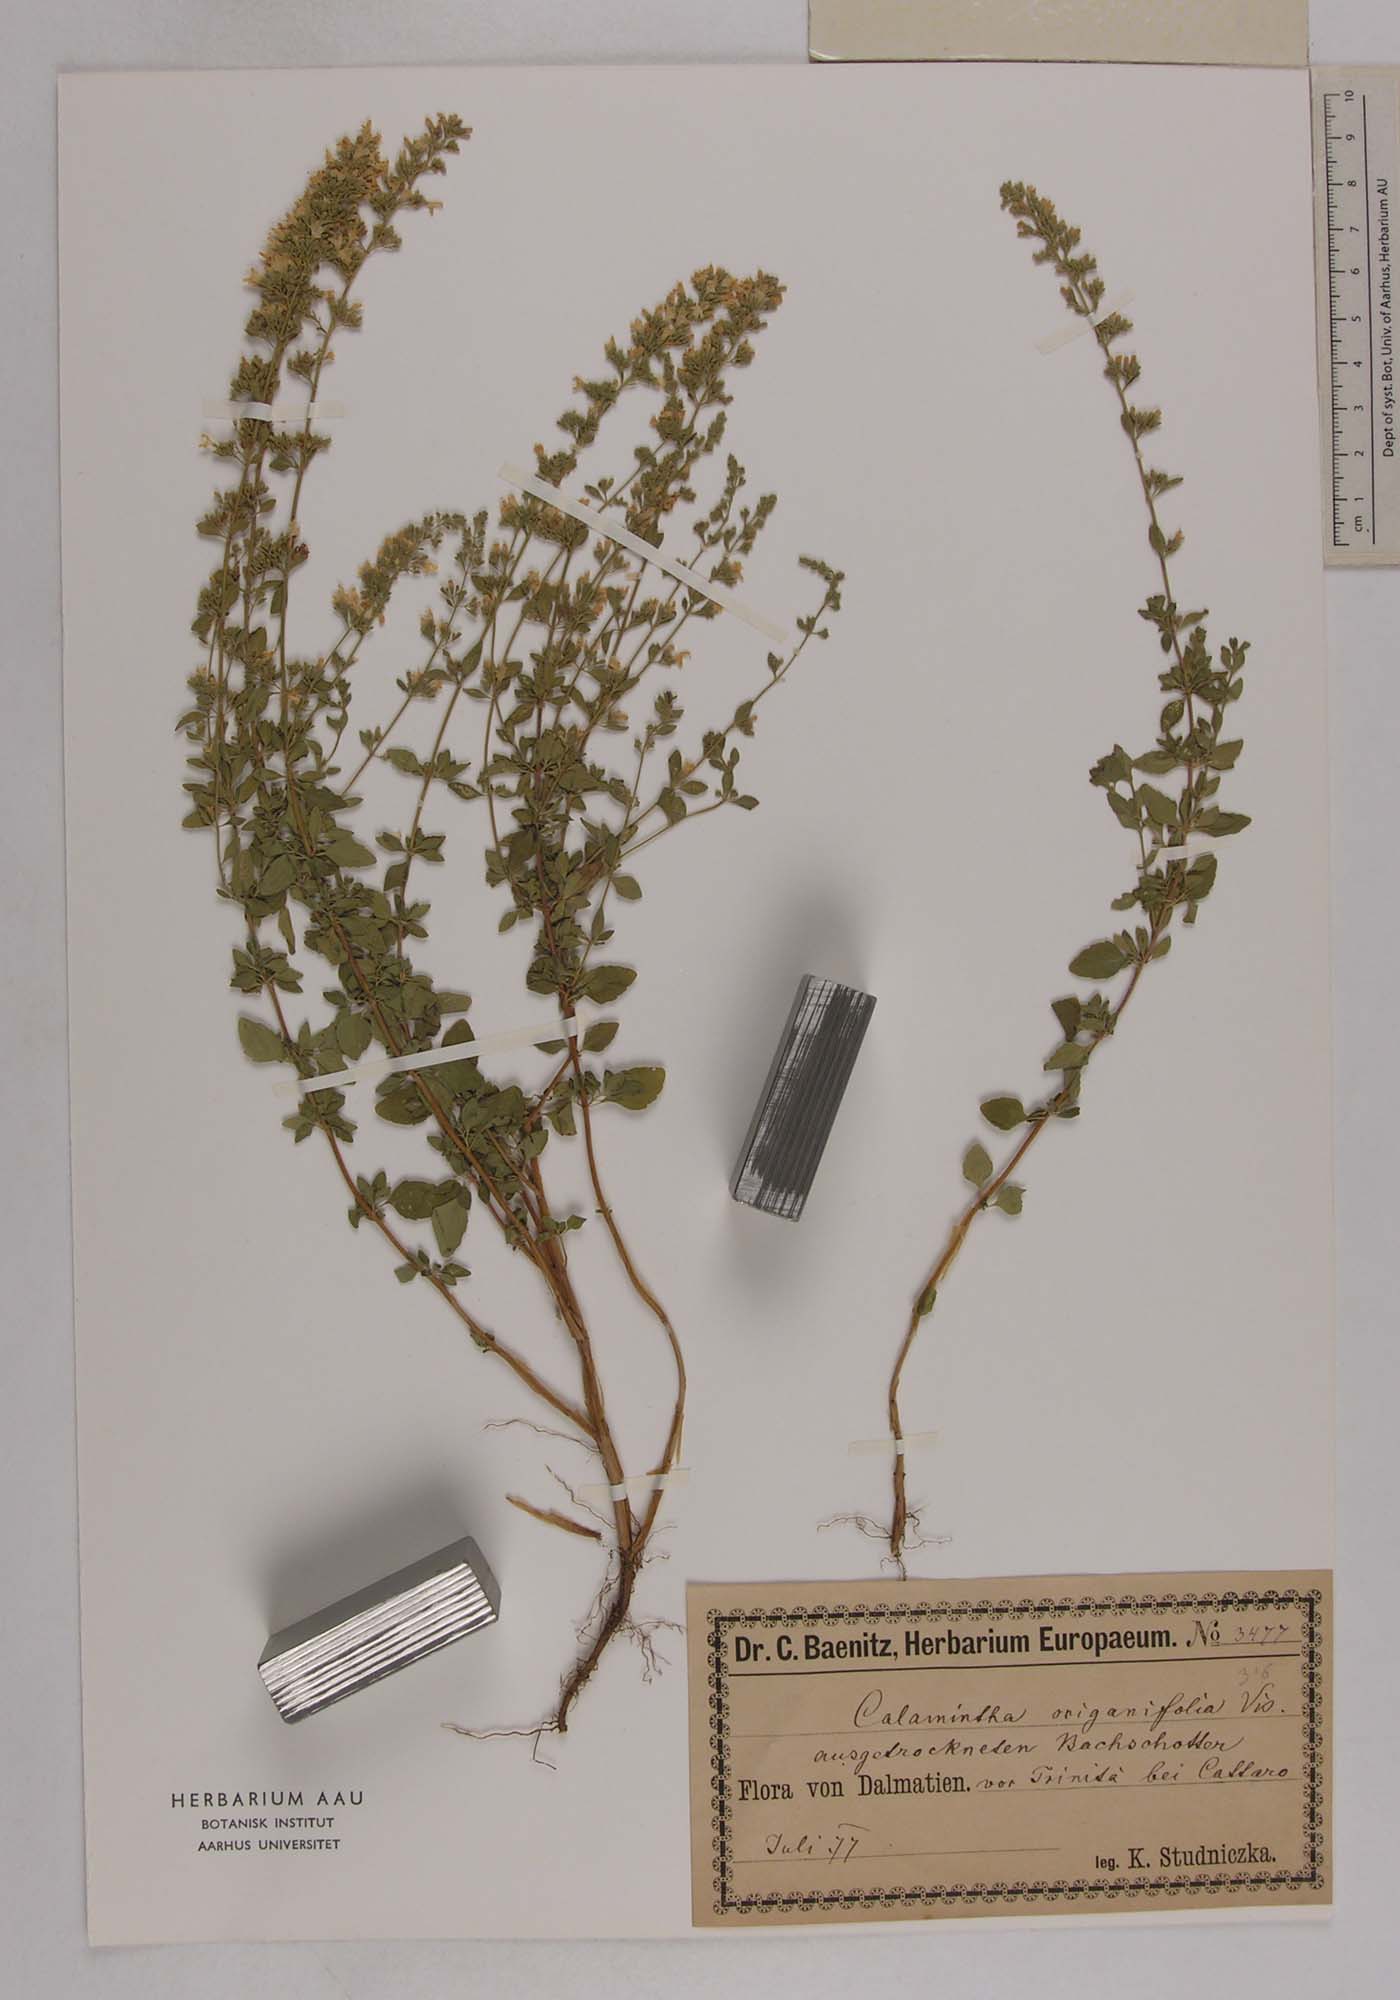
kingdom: Plantae
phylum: Tracheophyta
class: Magnoliopsida
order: Lamiales
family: Lamiaceae
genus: Clinopodium
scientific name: Clinopodium dalmaticum
